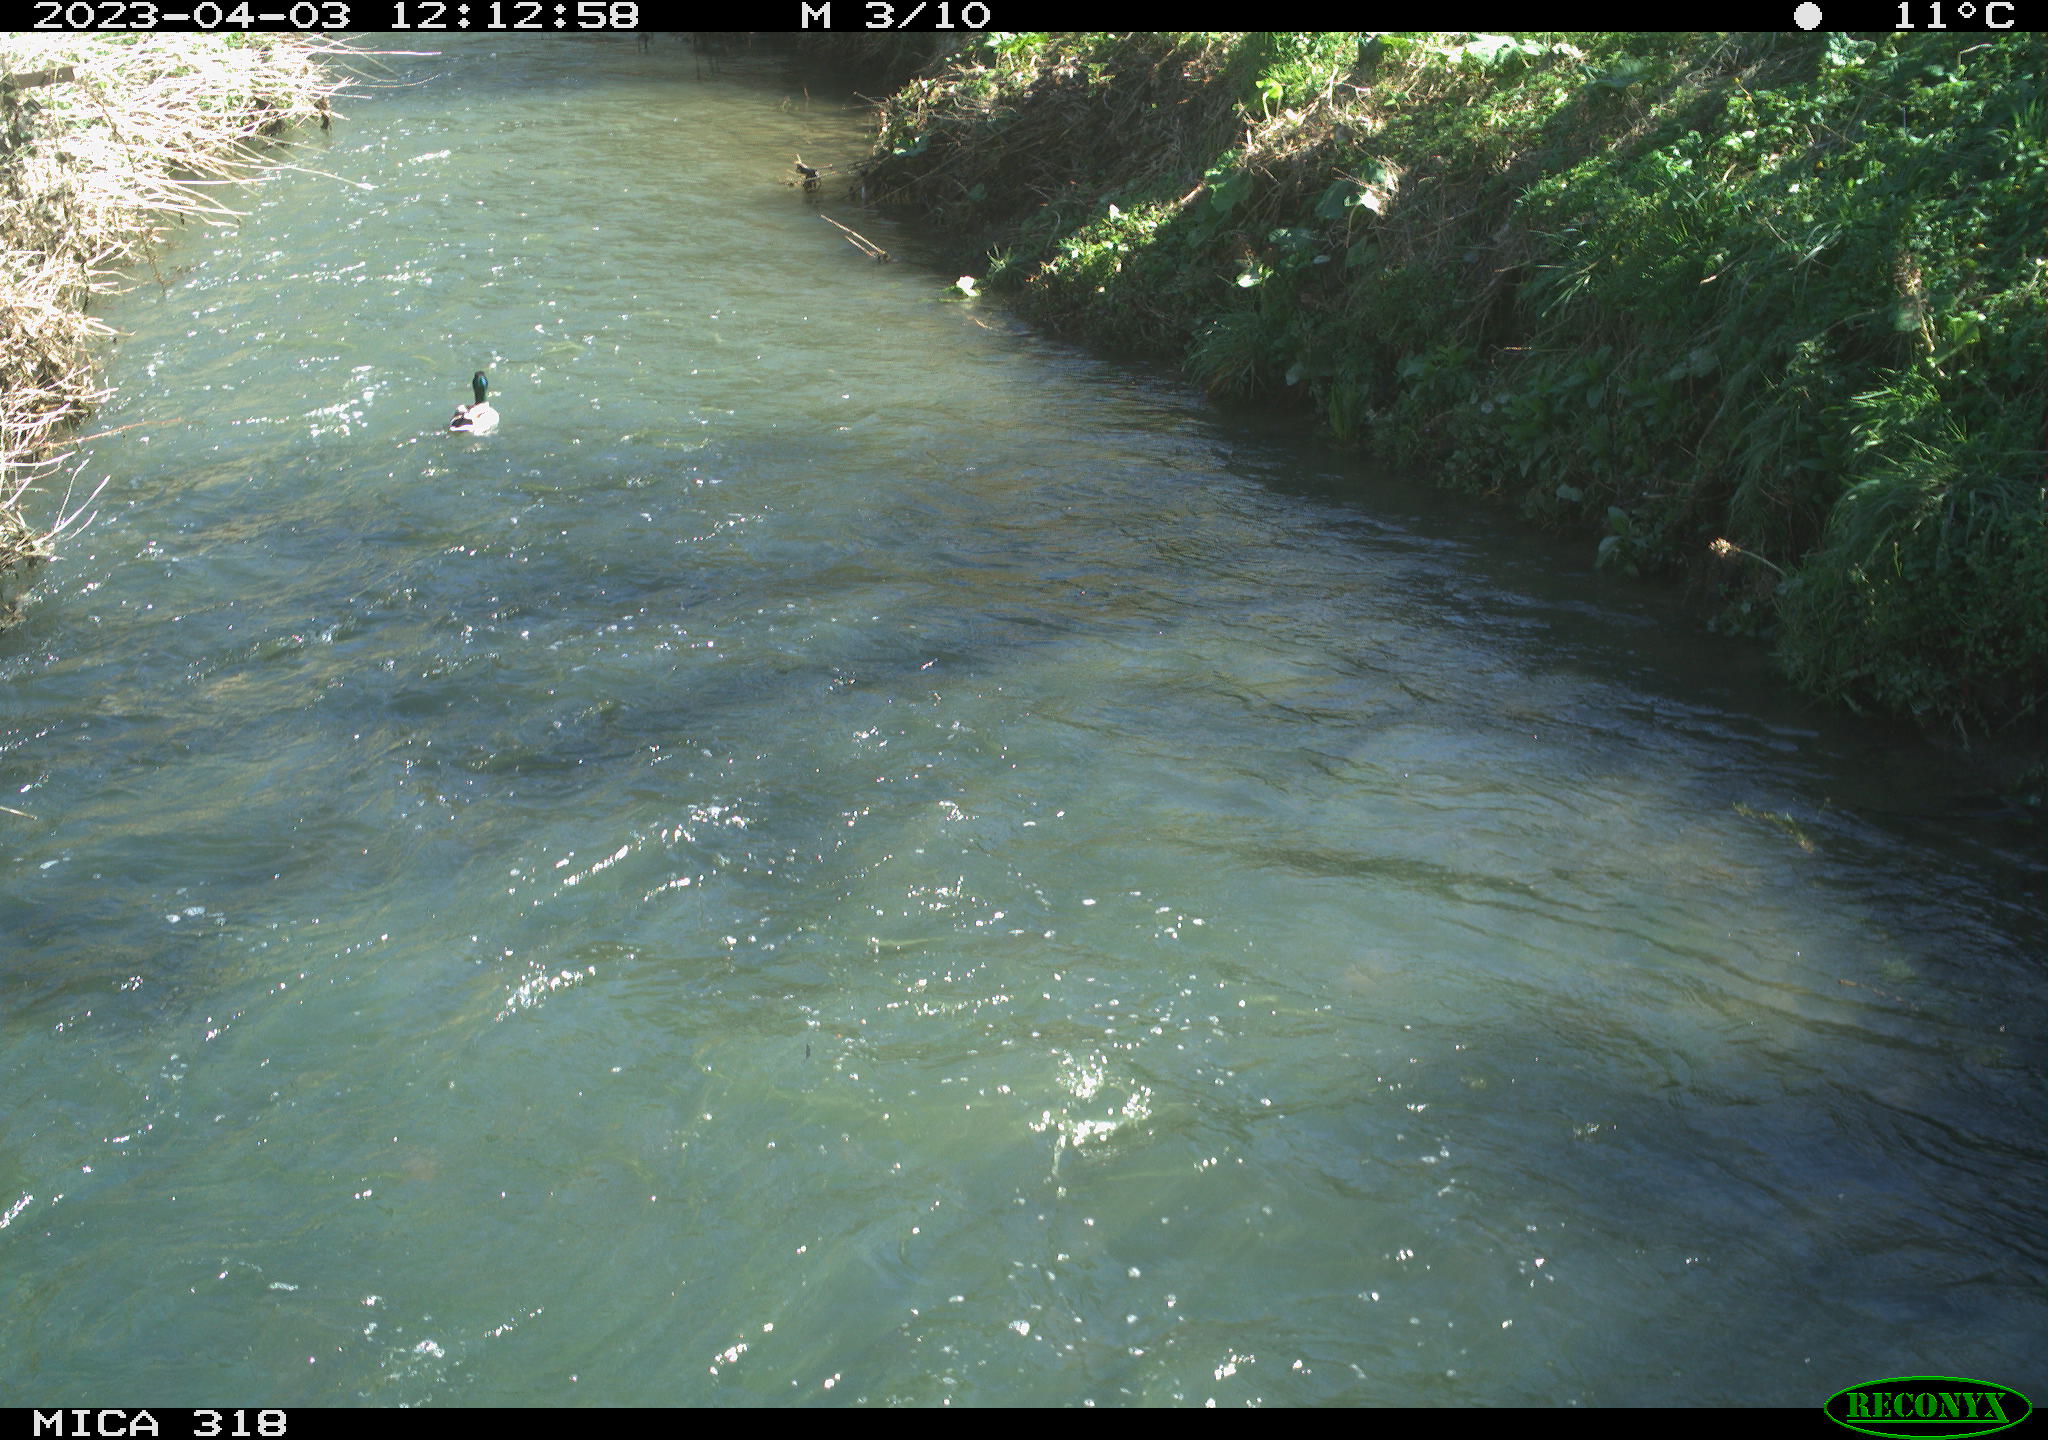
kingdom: Animalia
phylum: Chordata
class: Aves
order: Anseriformes
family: Anatidae
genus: Anas
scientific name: Anas
